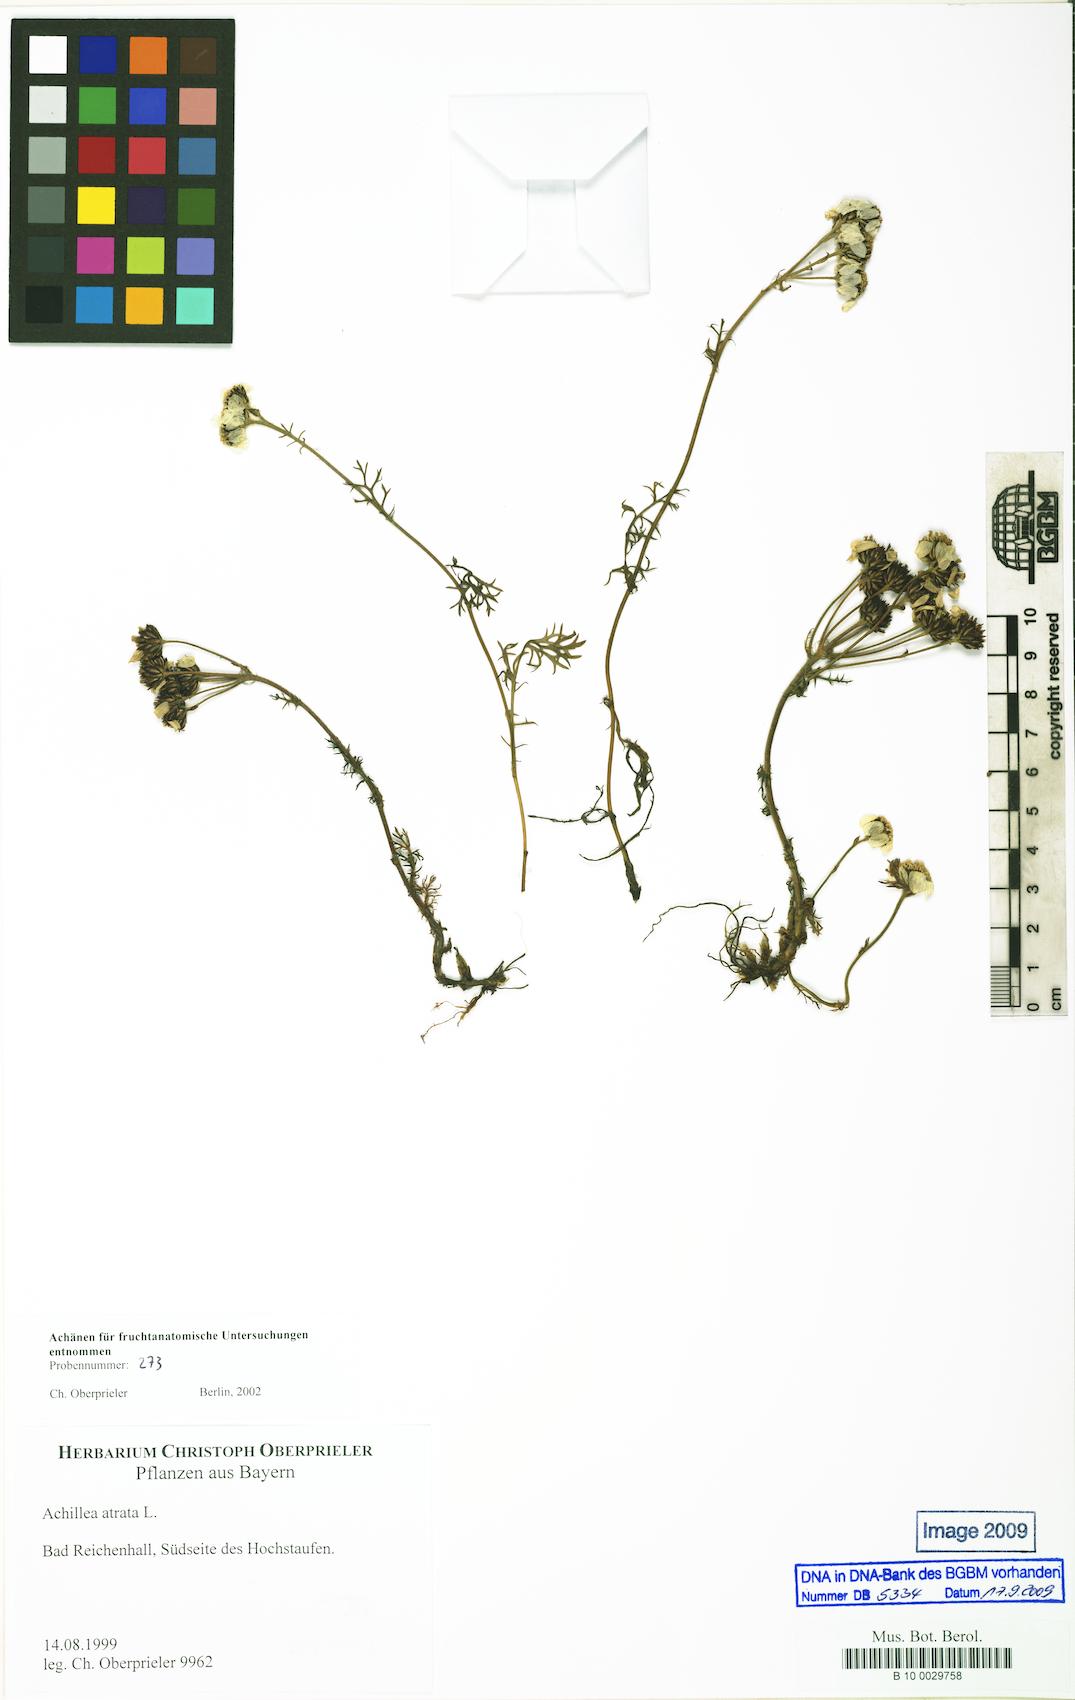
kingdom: Plantae
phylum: Tracheophyta
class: Magnoliopsida
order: Asterales
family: Asteraceae
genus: Achillea
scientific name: Achillea atrata
